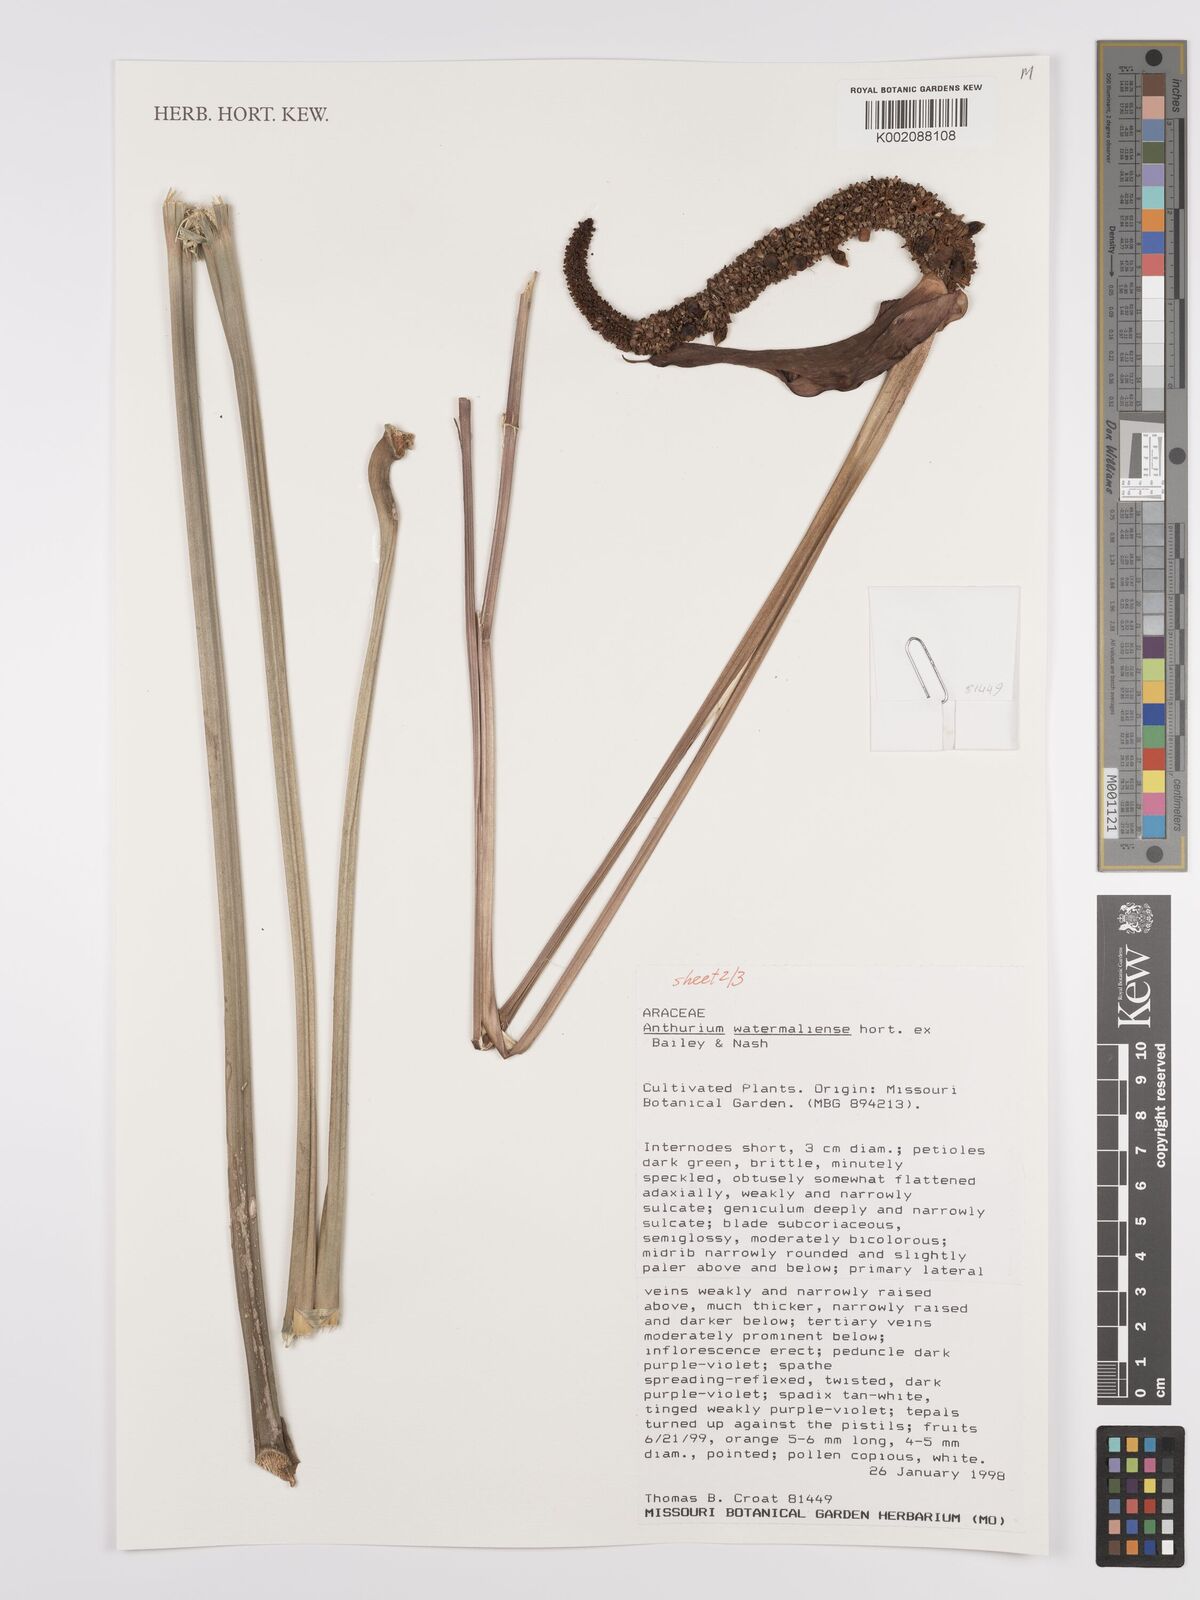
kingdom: Plantae
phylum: Tracheophyta
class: Liliopsida
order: Alismatales
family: Araceae
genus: Anthurium
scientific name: Anthurium watermaliense
